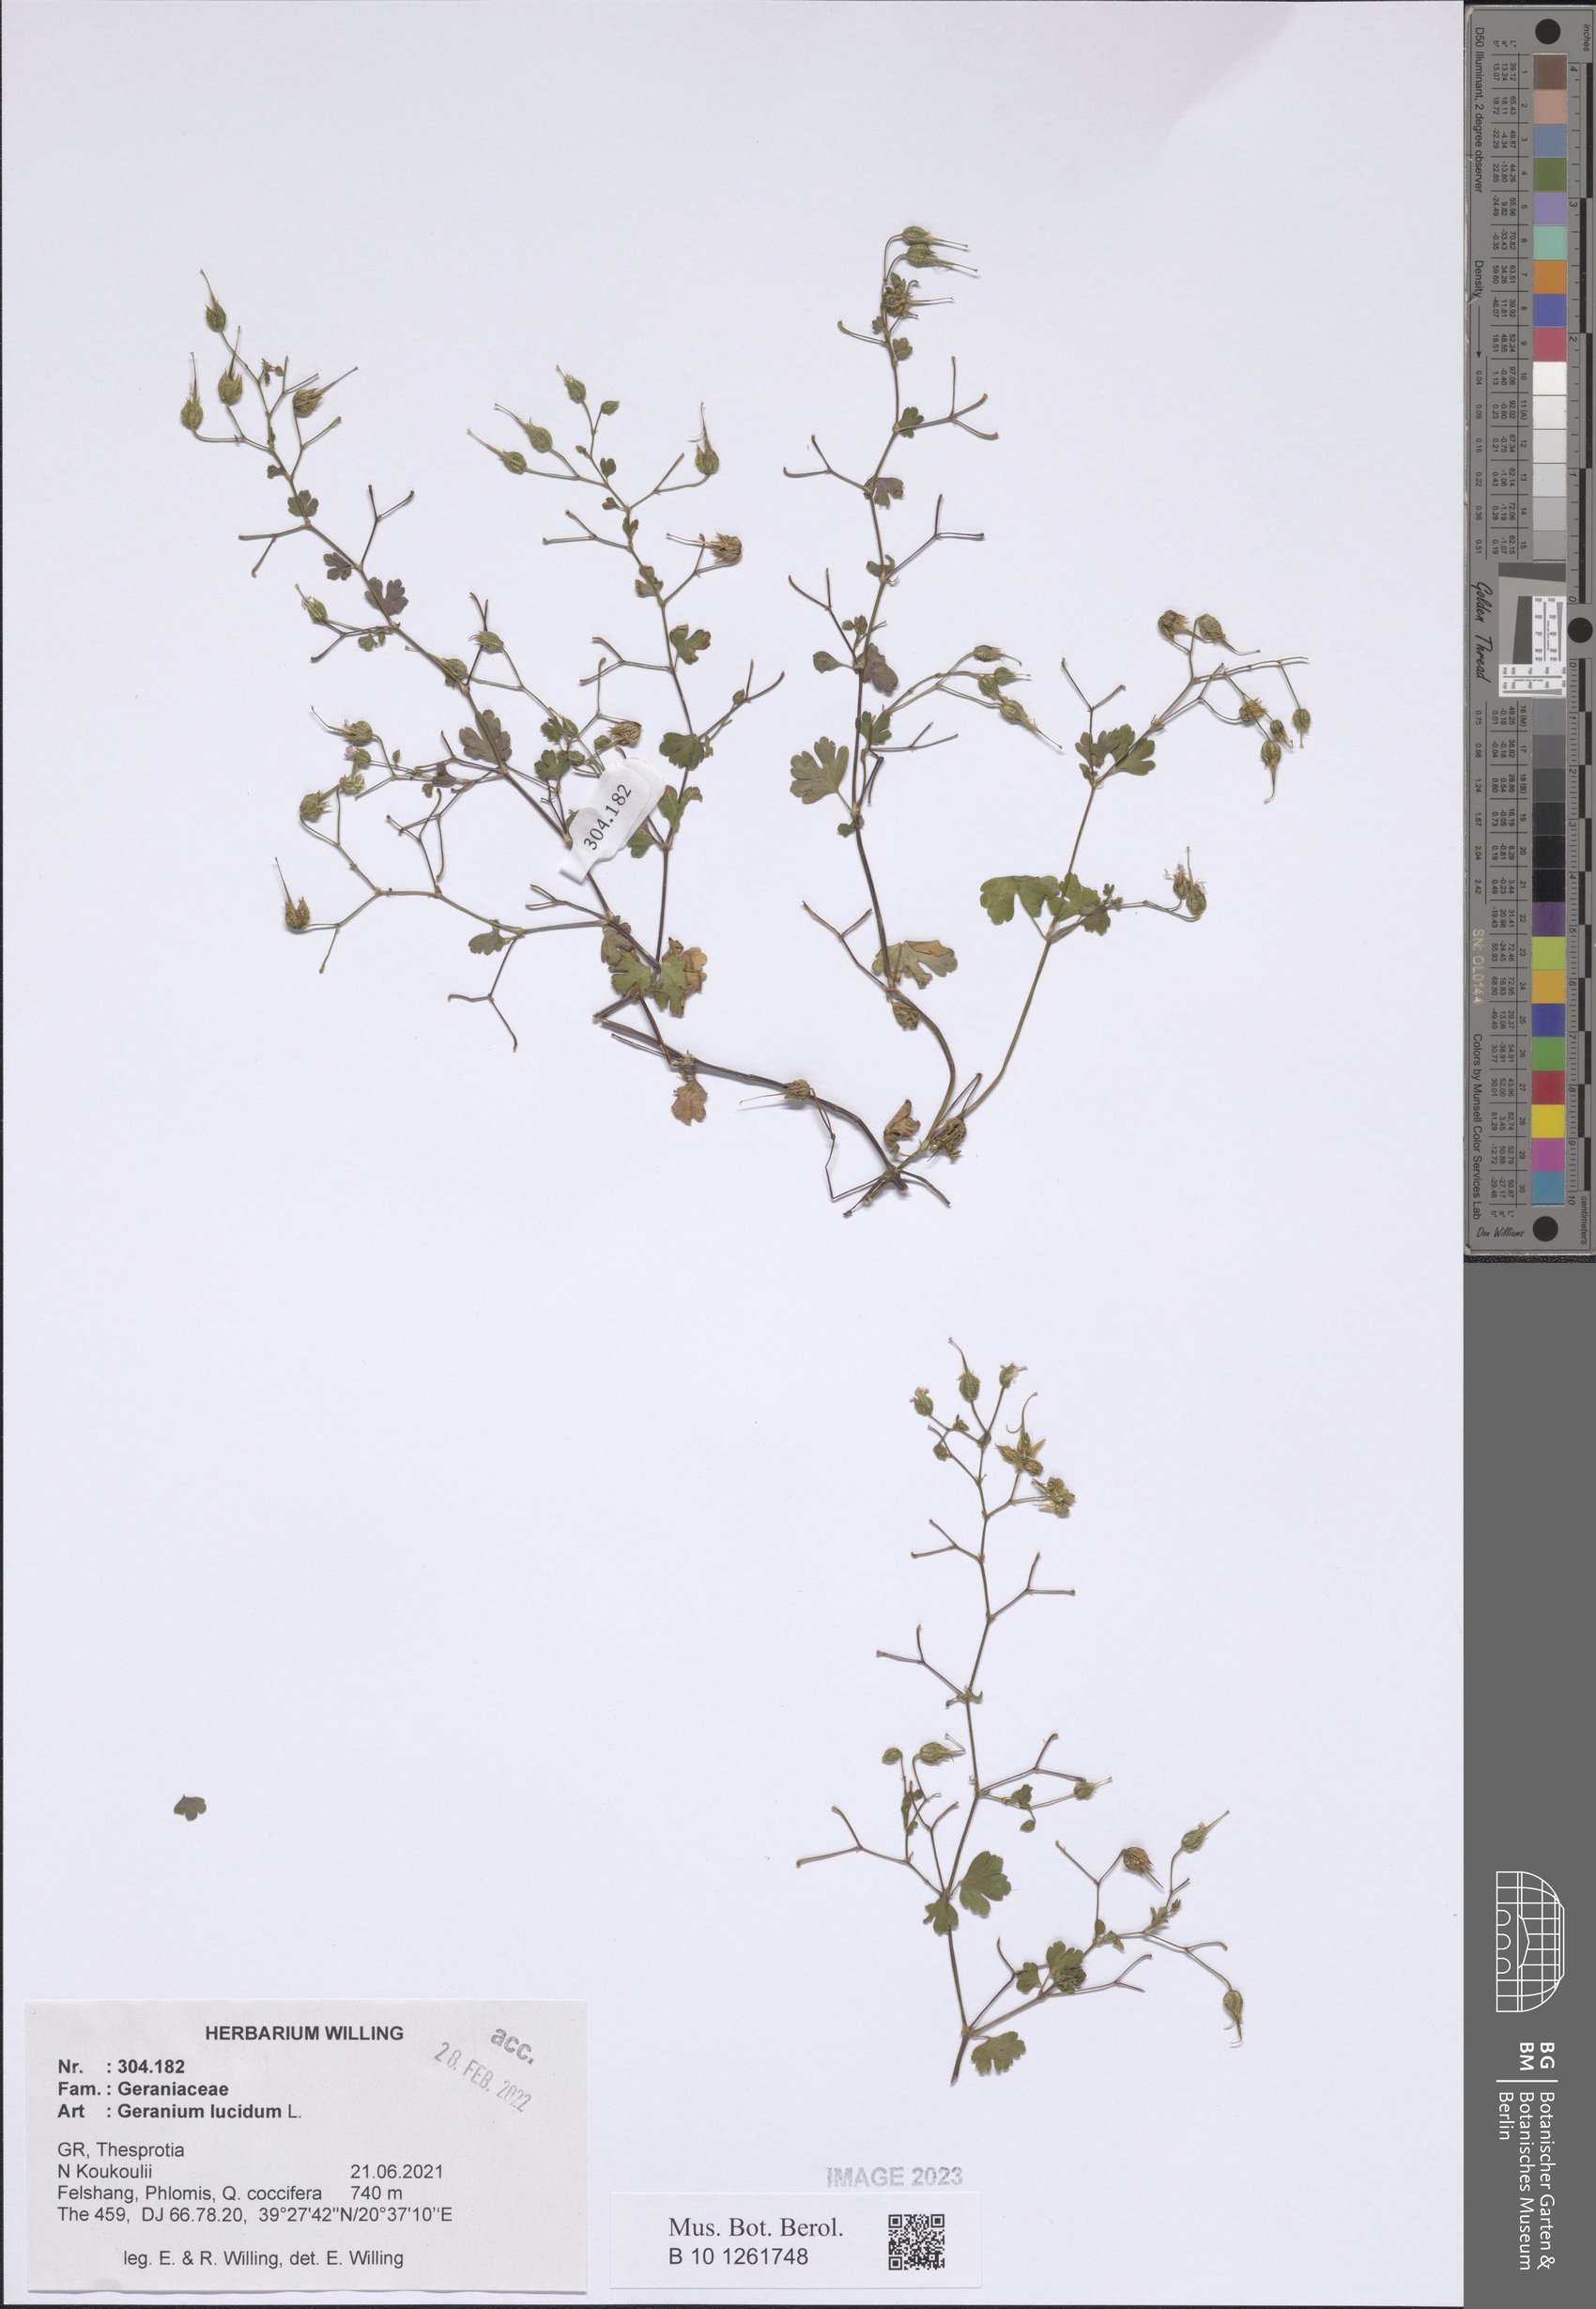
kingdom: Plantae
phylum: Tracheophyta
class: Magnoliopsida
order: Geraniales
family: Geraniaceae
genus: Geranium
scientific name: Geranium lucidum
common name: Shining crane's-bill
